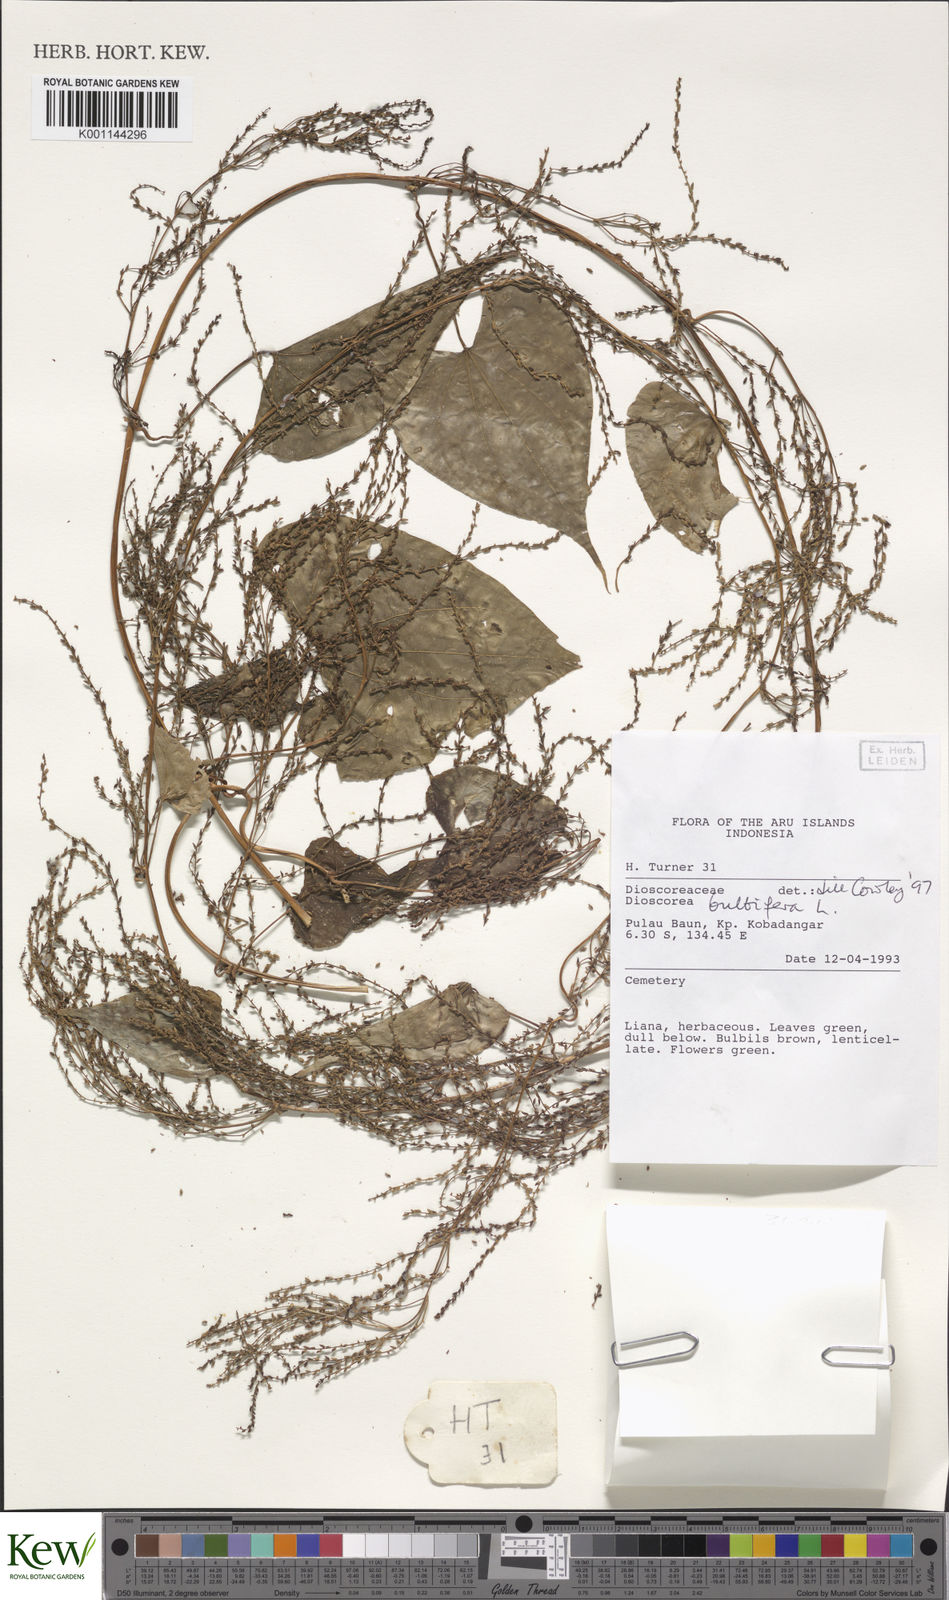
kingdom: Plantae
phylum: Tracheophyta
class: Liliopsida
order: Dioscoreales
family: Dioscoreaceae
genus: Dioscorea
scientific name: Dioscorea bulbifera
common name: Air yam
